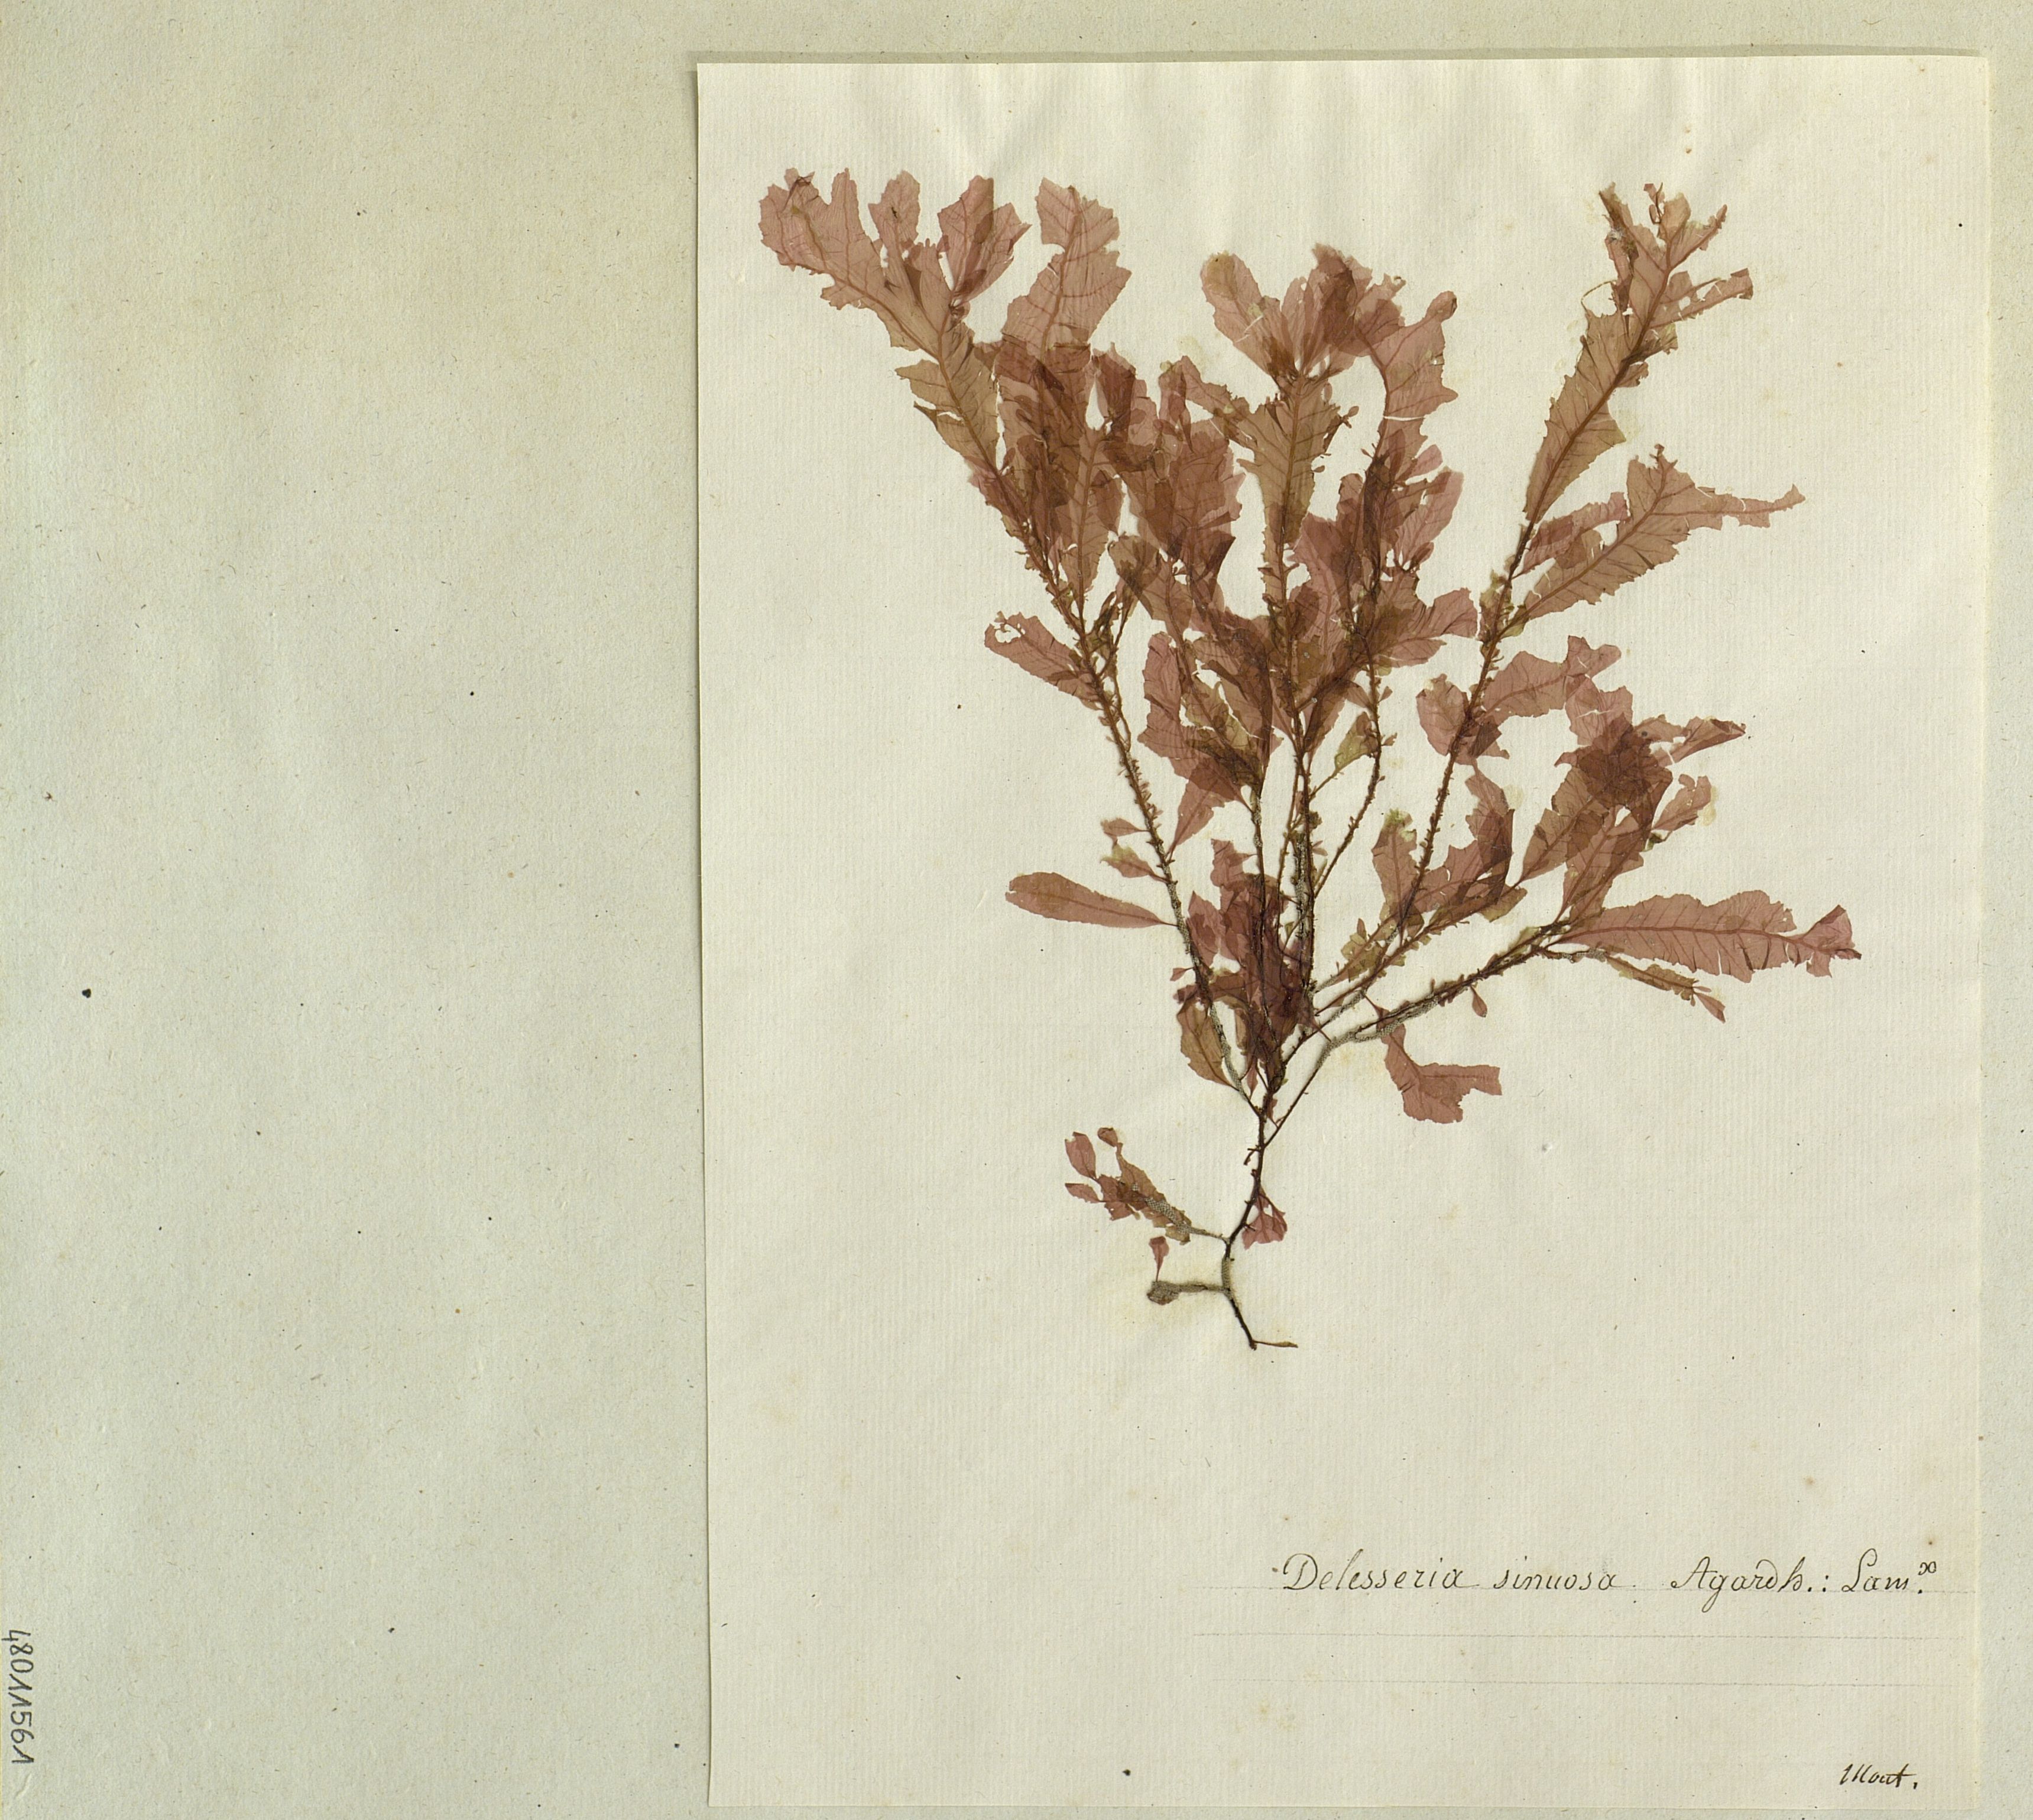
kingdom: Plantae
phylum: Rhodophyta
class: Florideophyceae
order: Ceramiales
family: Delesseriaceae
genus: Phycodrys
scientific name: Phycodrys rubens
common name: Sea oak
